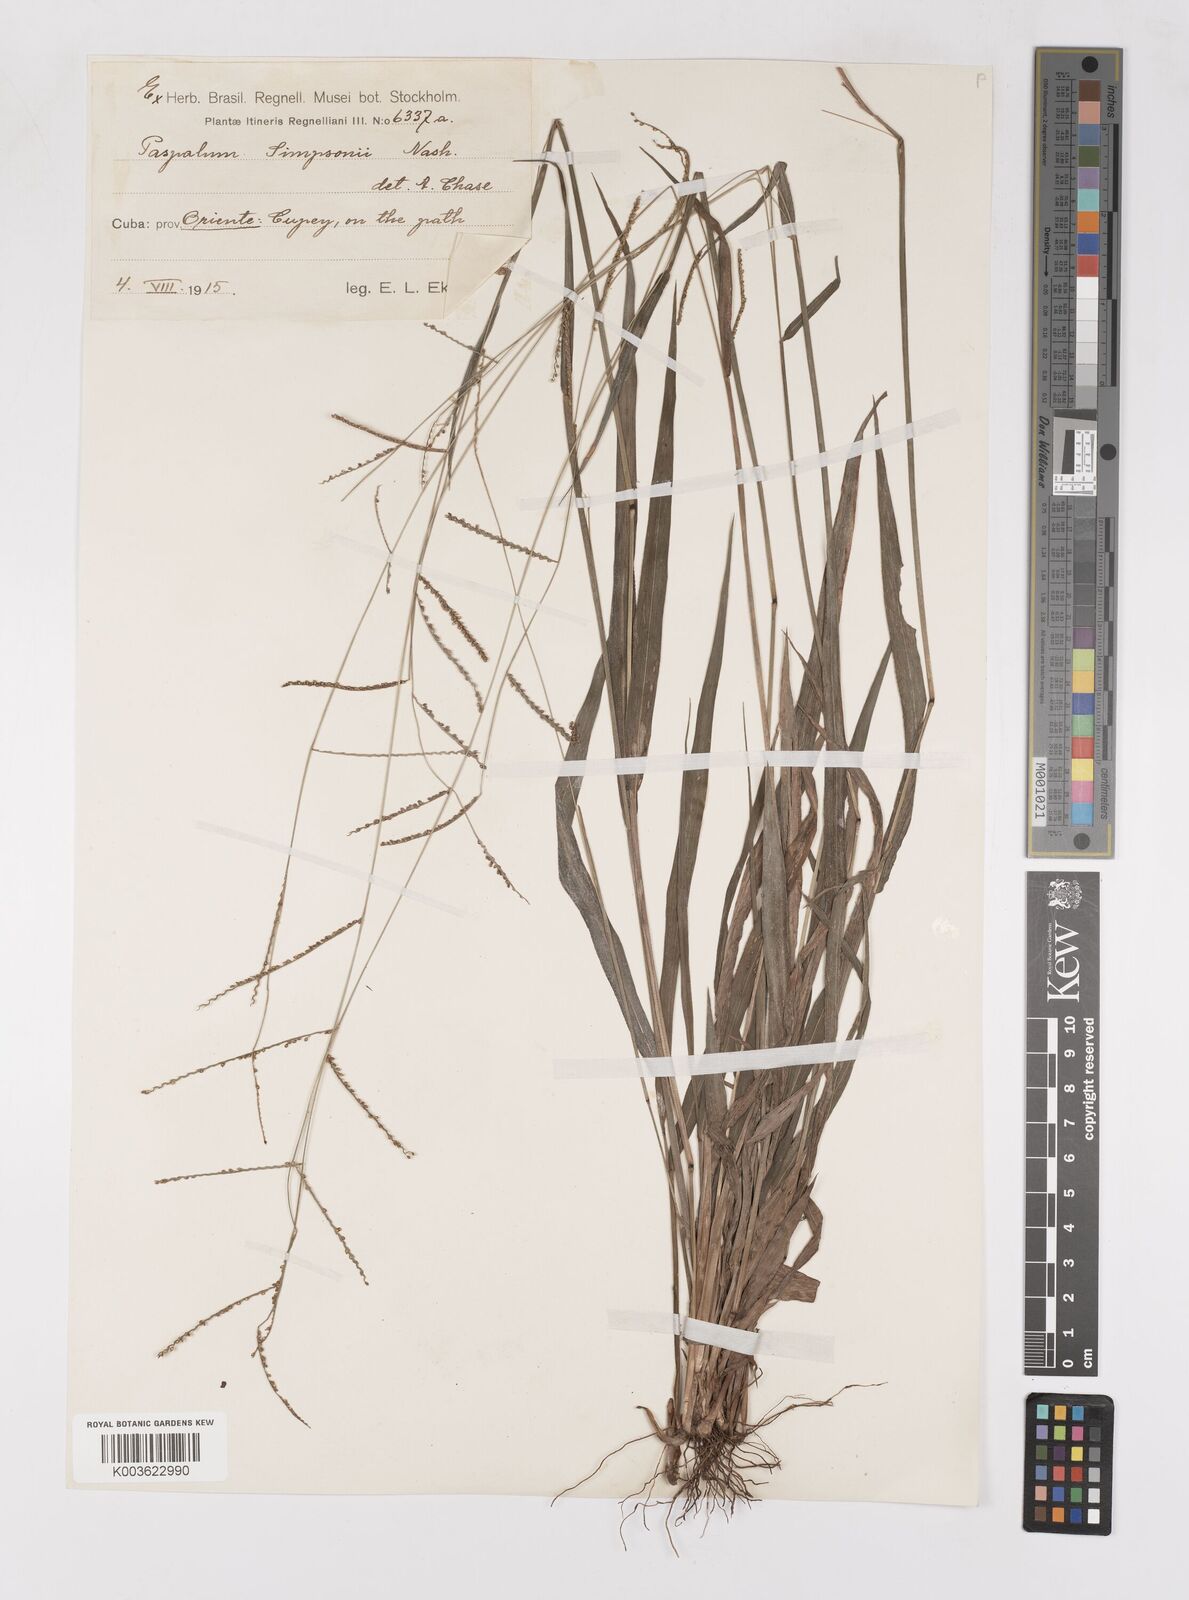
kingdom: Plantae
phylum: Tracheophyta
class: Liliopsida
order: Poales
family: Poaceae
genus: Paspalum
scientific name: Paspalum blodgettii
